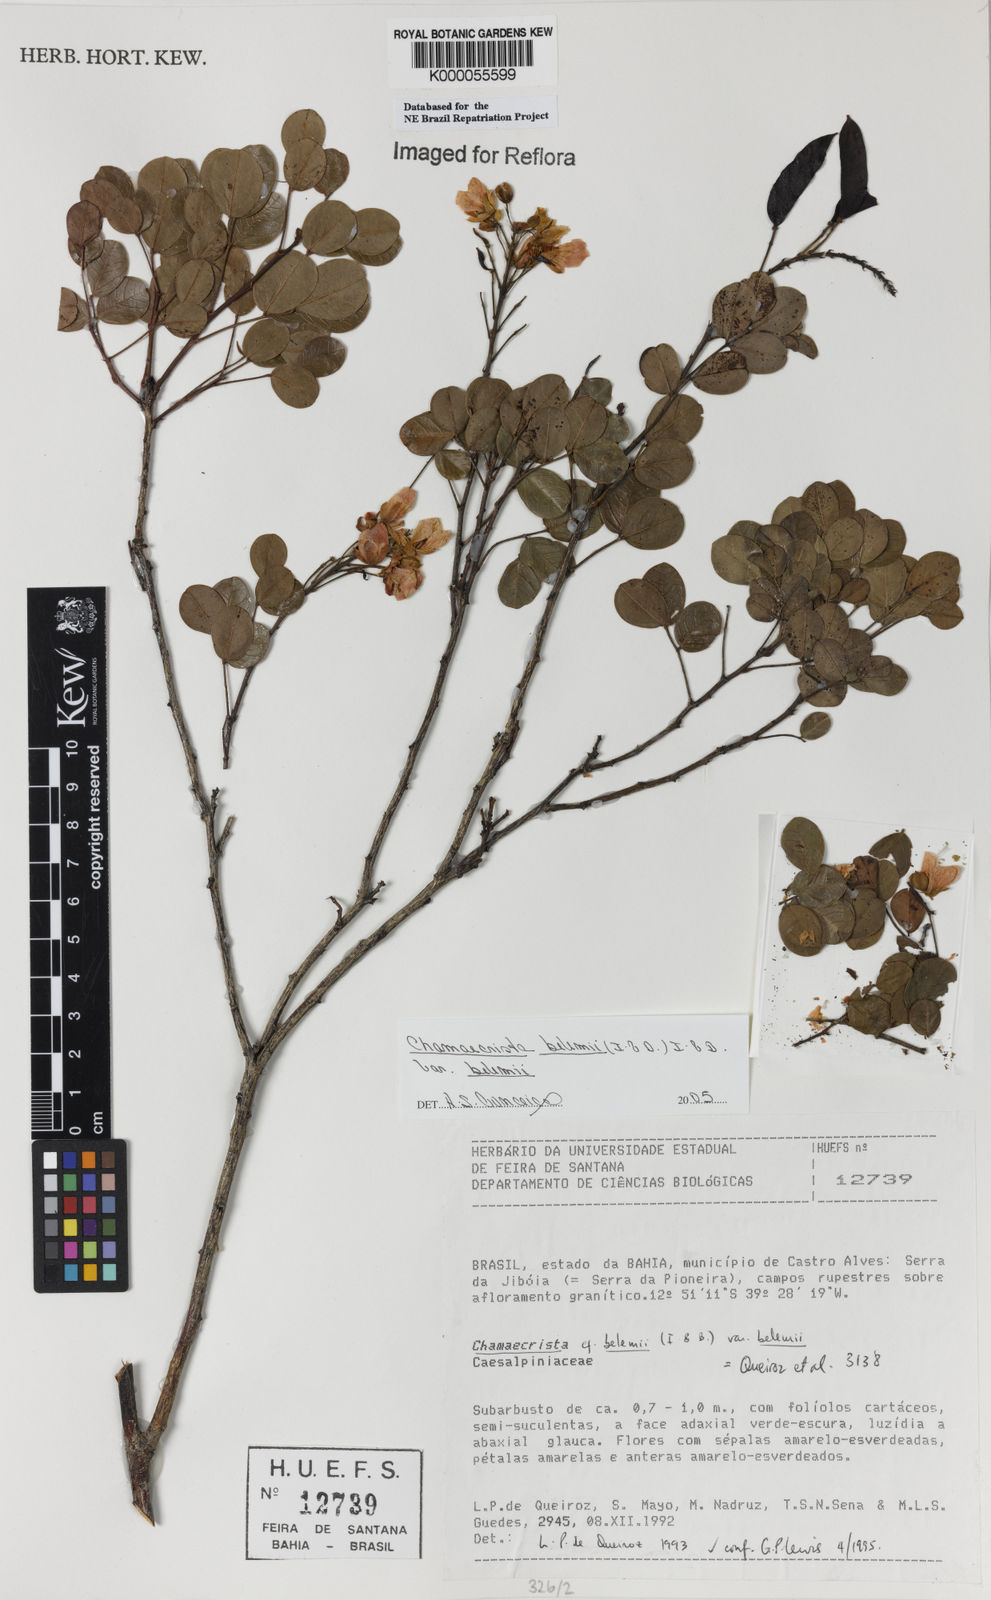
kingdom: Plantae
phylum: Tracheophyta
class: Magnoliopsida
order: Fabales
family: Fabaceae
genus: Chamaecrista
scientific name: Chamaecrista belemii
